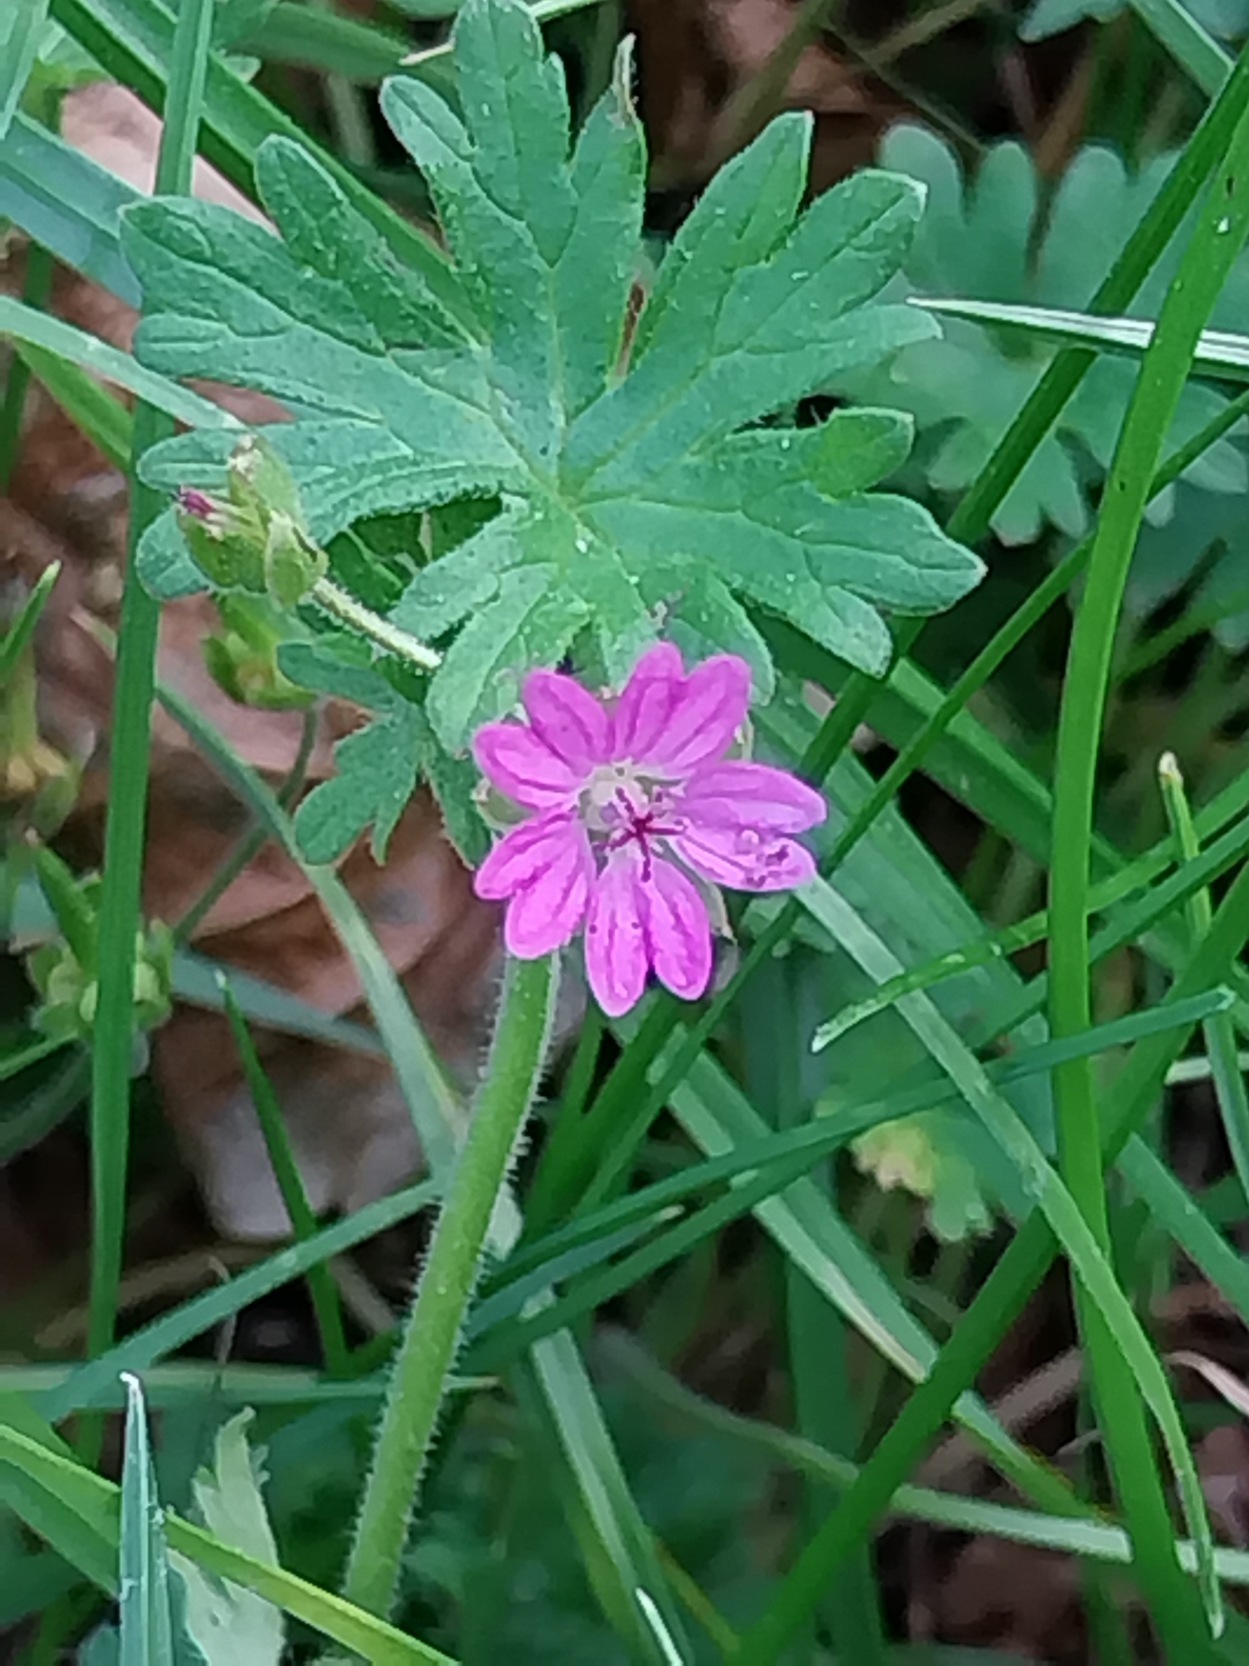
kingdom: Plantae
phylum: Tracheophyta
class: Magnoliopsida
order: Geraniales
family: Geraniaceae
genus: Geranium
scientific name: Geranium molle
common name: Blød storkenæb
